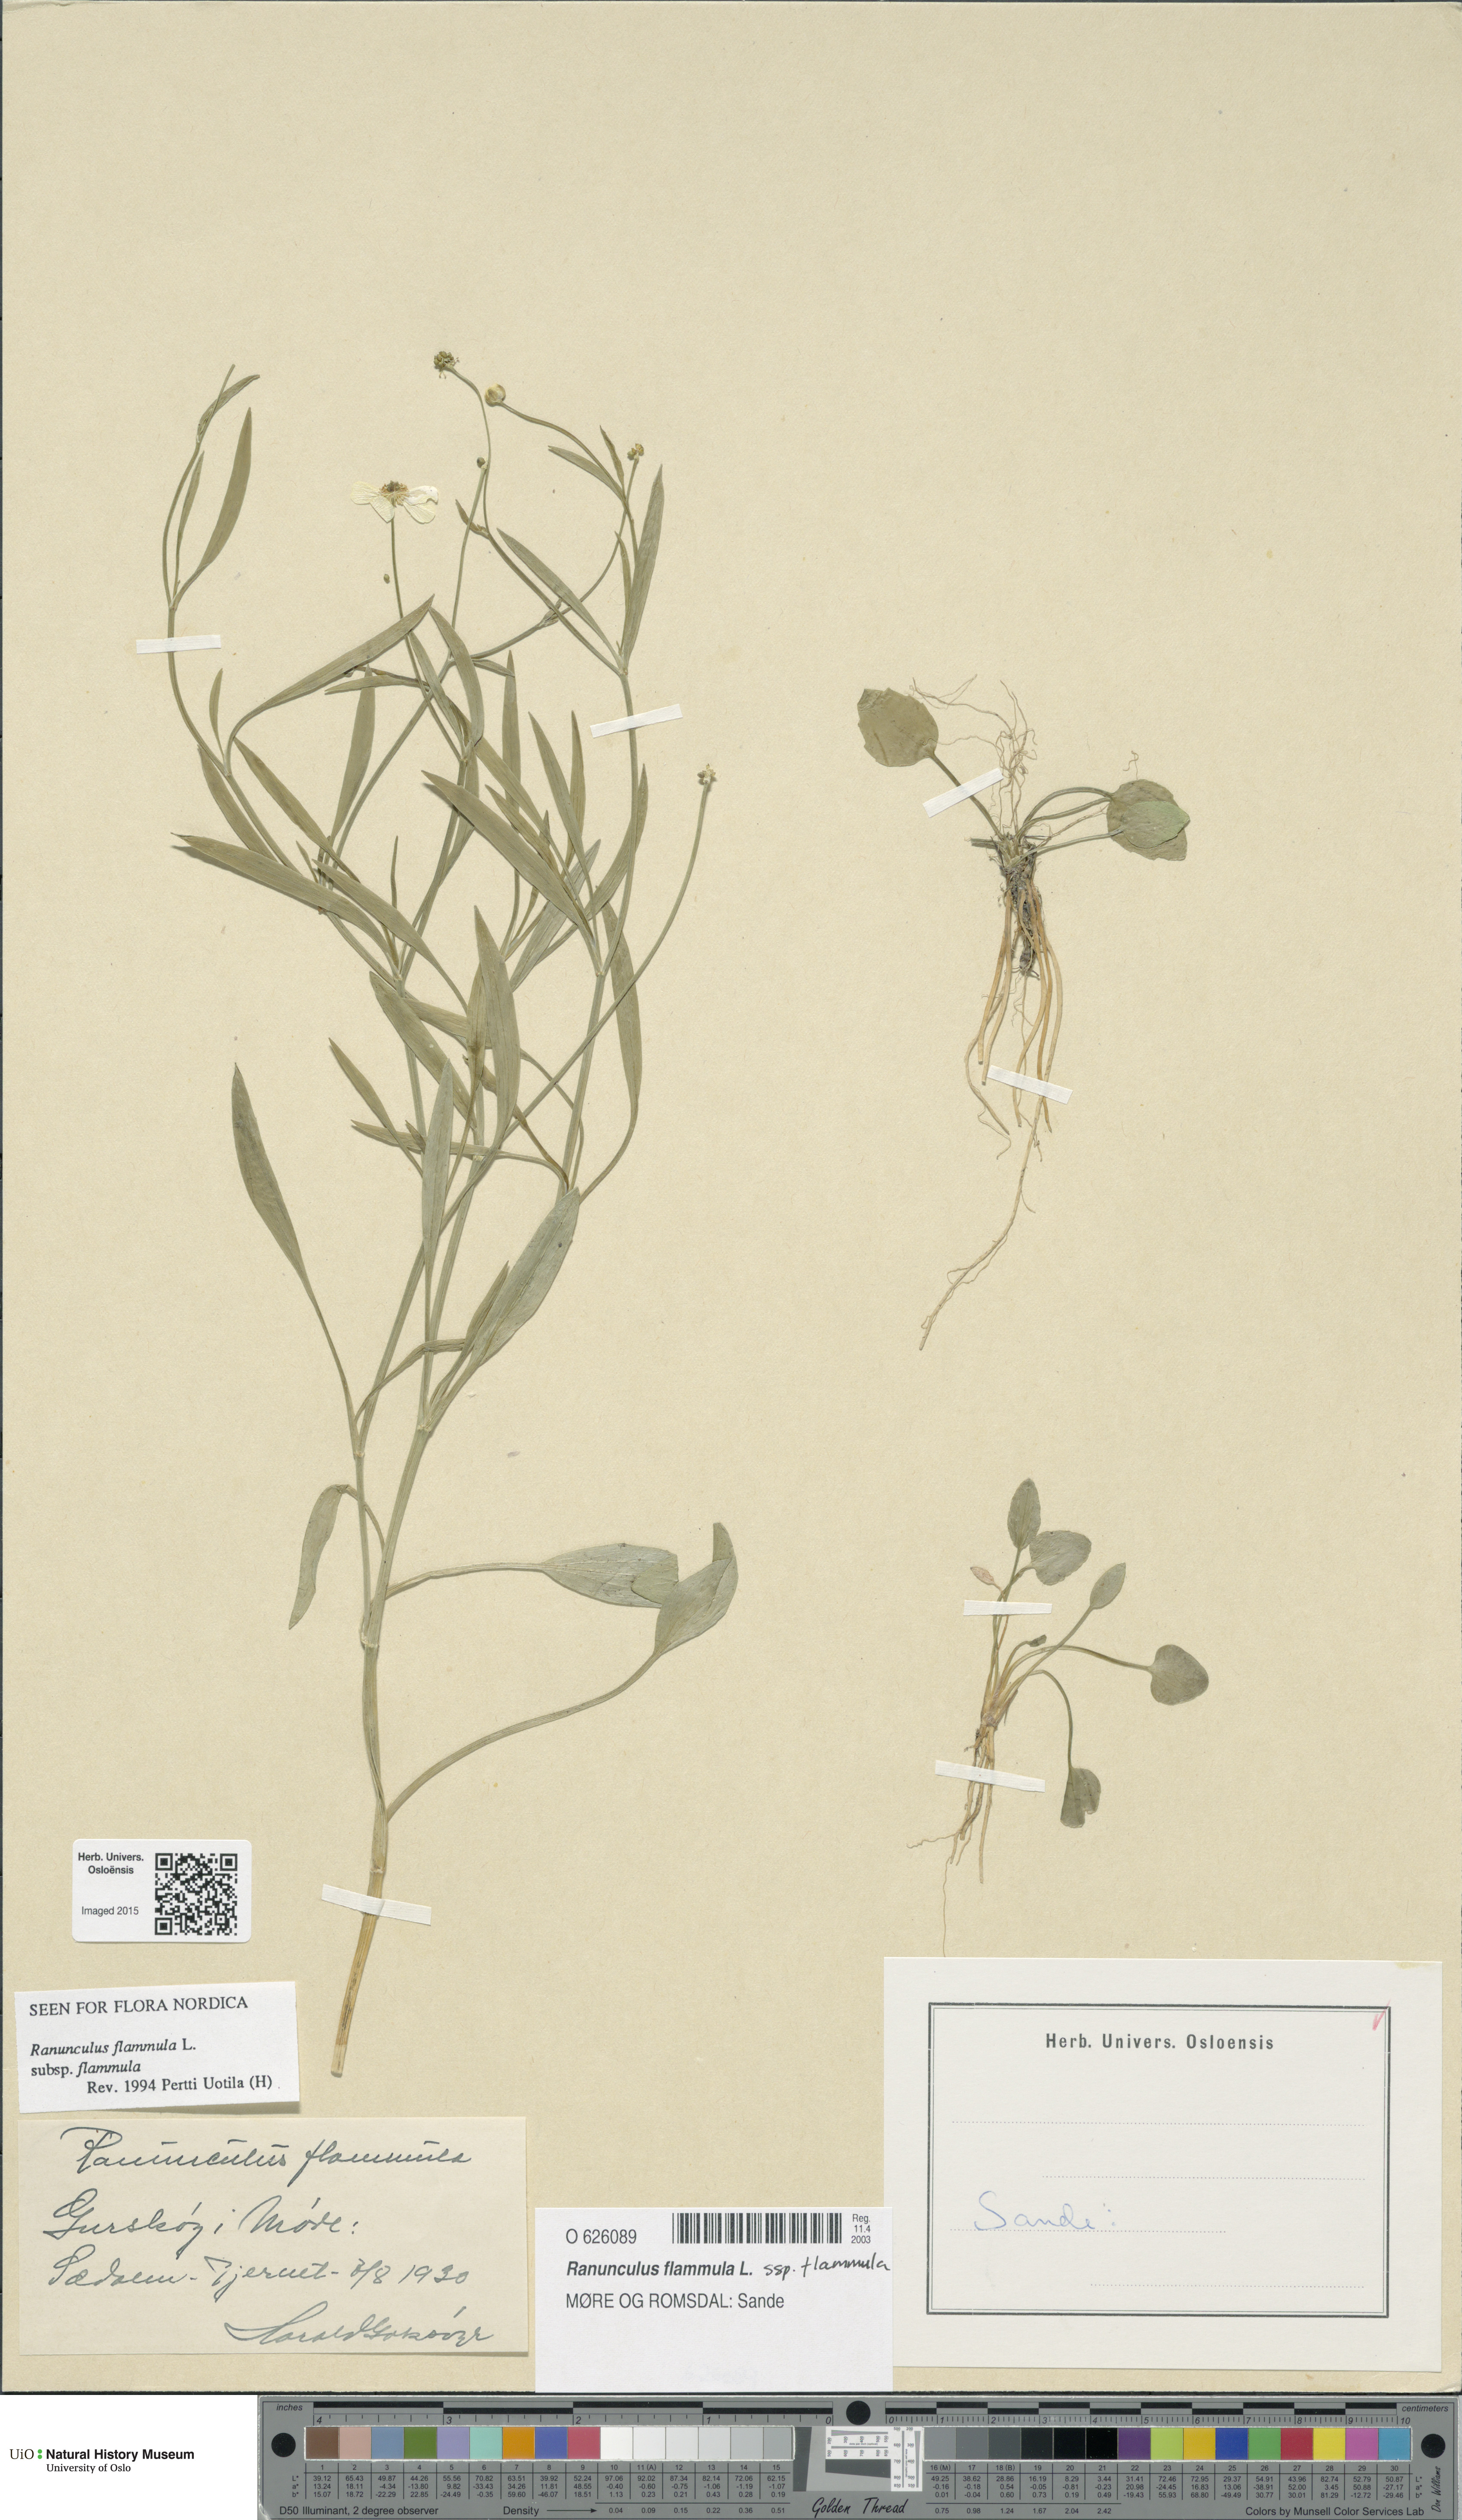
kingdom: Plantae
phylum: Tracheophyta
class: Magnoliopsida
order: Ranunculales
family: Ranunculaceae
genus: Ranunculus
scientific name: Ranunculus flammula
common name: Lesser spearwort
